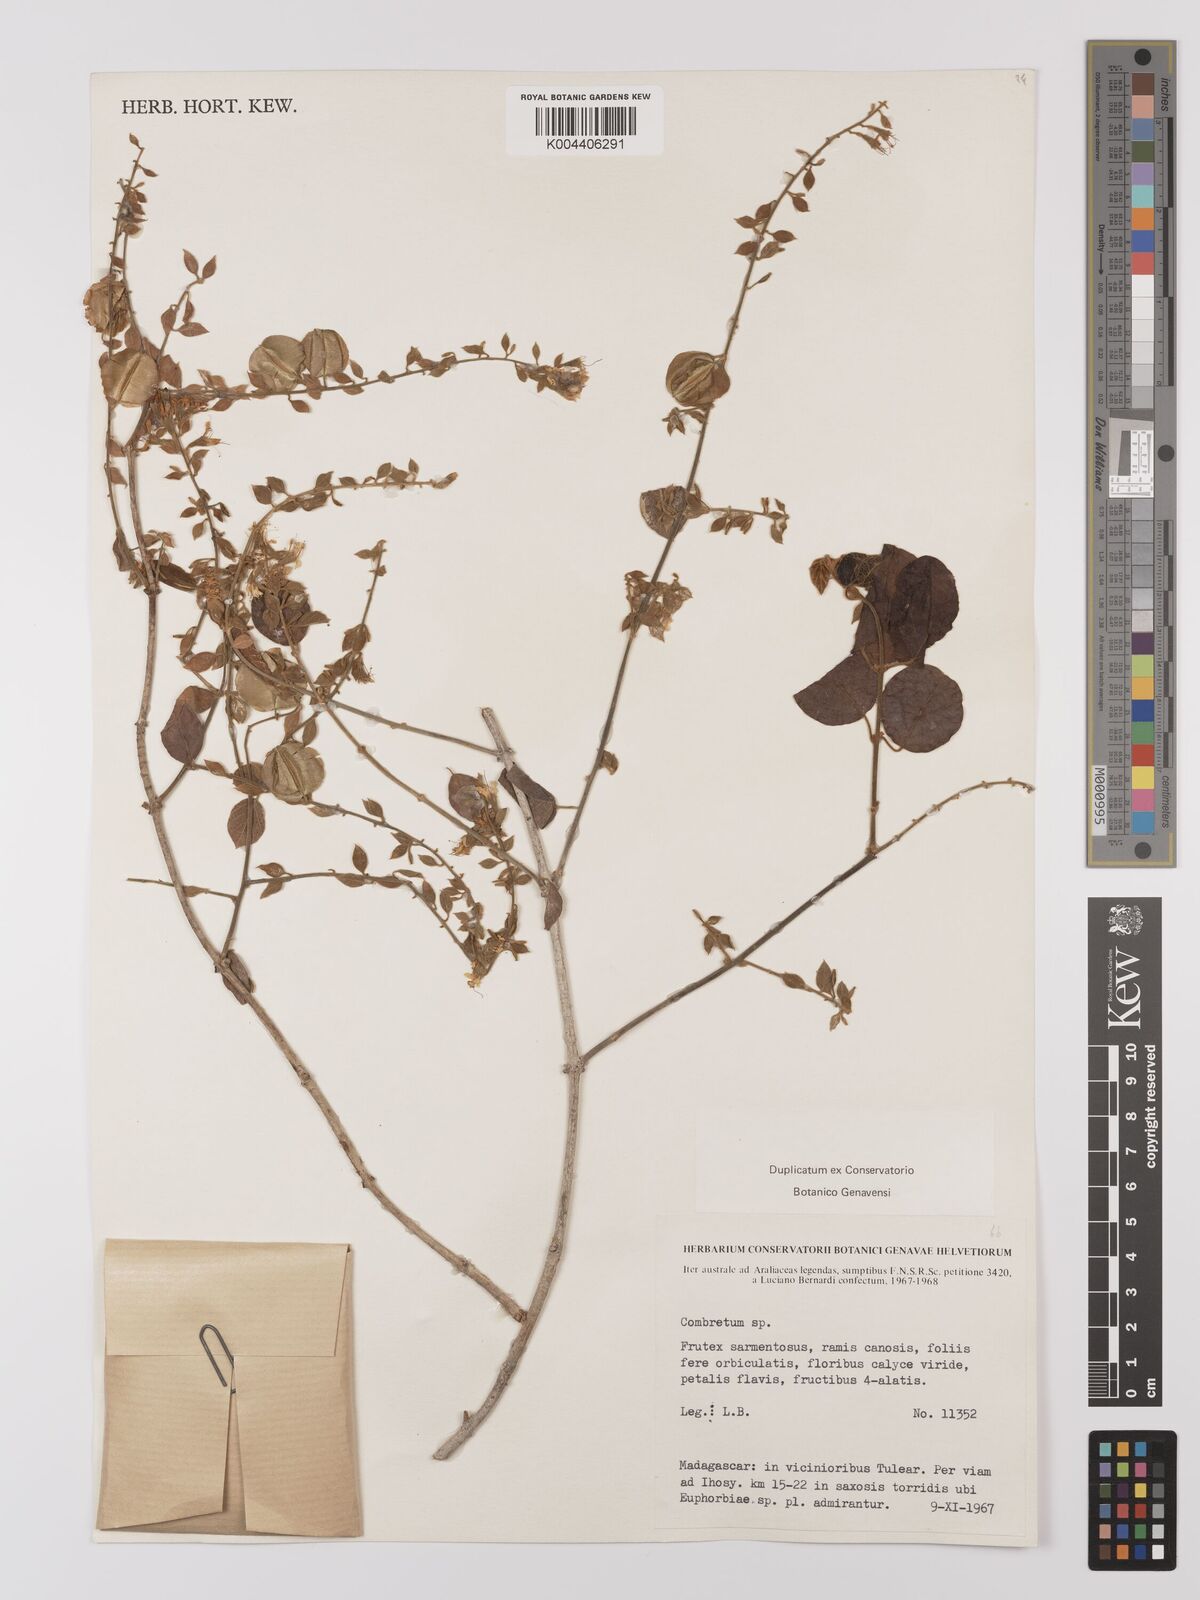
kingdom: Plantae
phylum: Tracheophyta
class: Magnoliopsida
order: Myrtales
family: Combretaceae
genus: Combretum
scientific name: Combretum albiflorum
